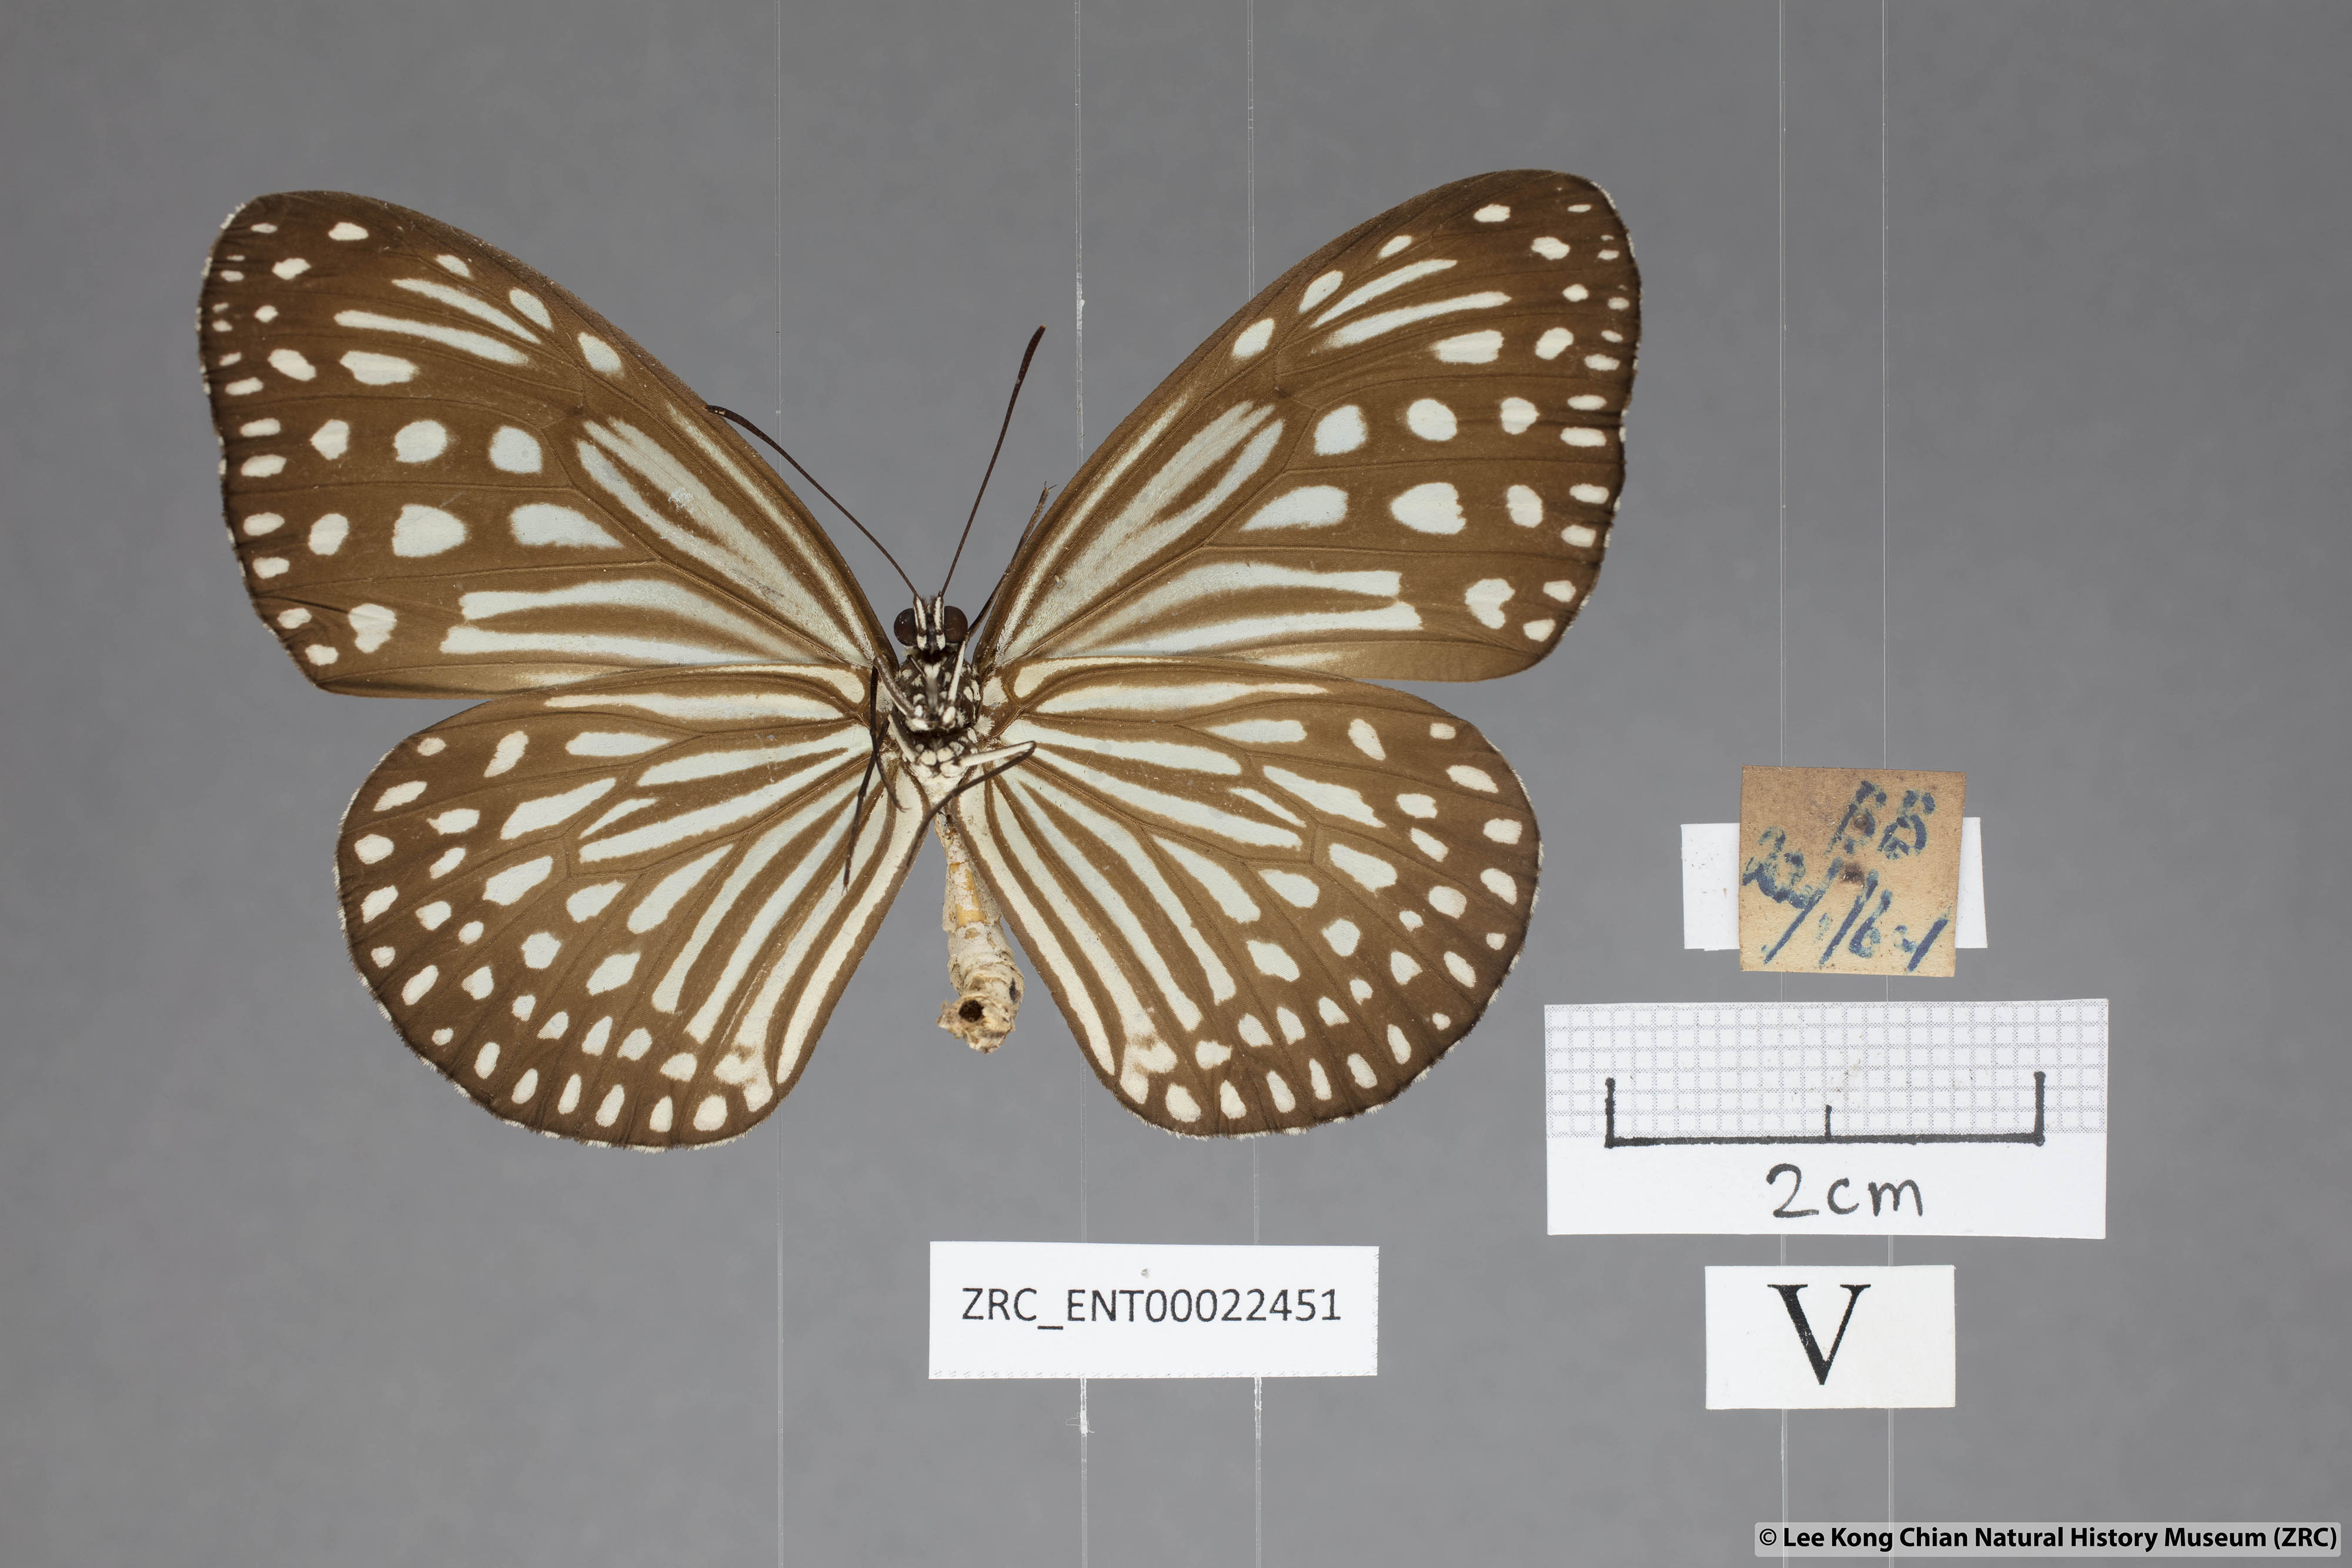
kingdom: Animalia
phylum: Arthropoda
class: Insecta
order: Lepidoptera
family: Nymphalidae
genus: Parantica
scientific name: Parantica agleoides
